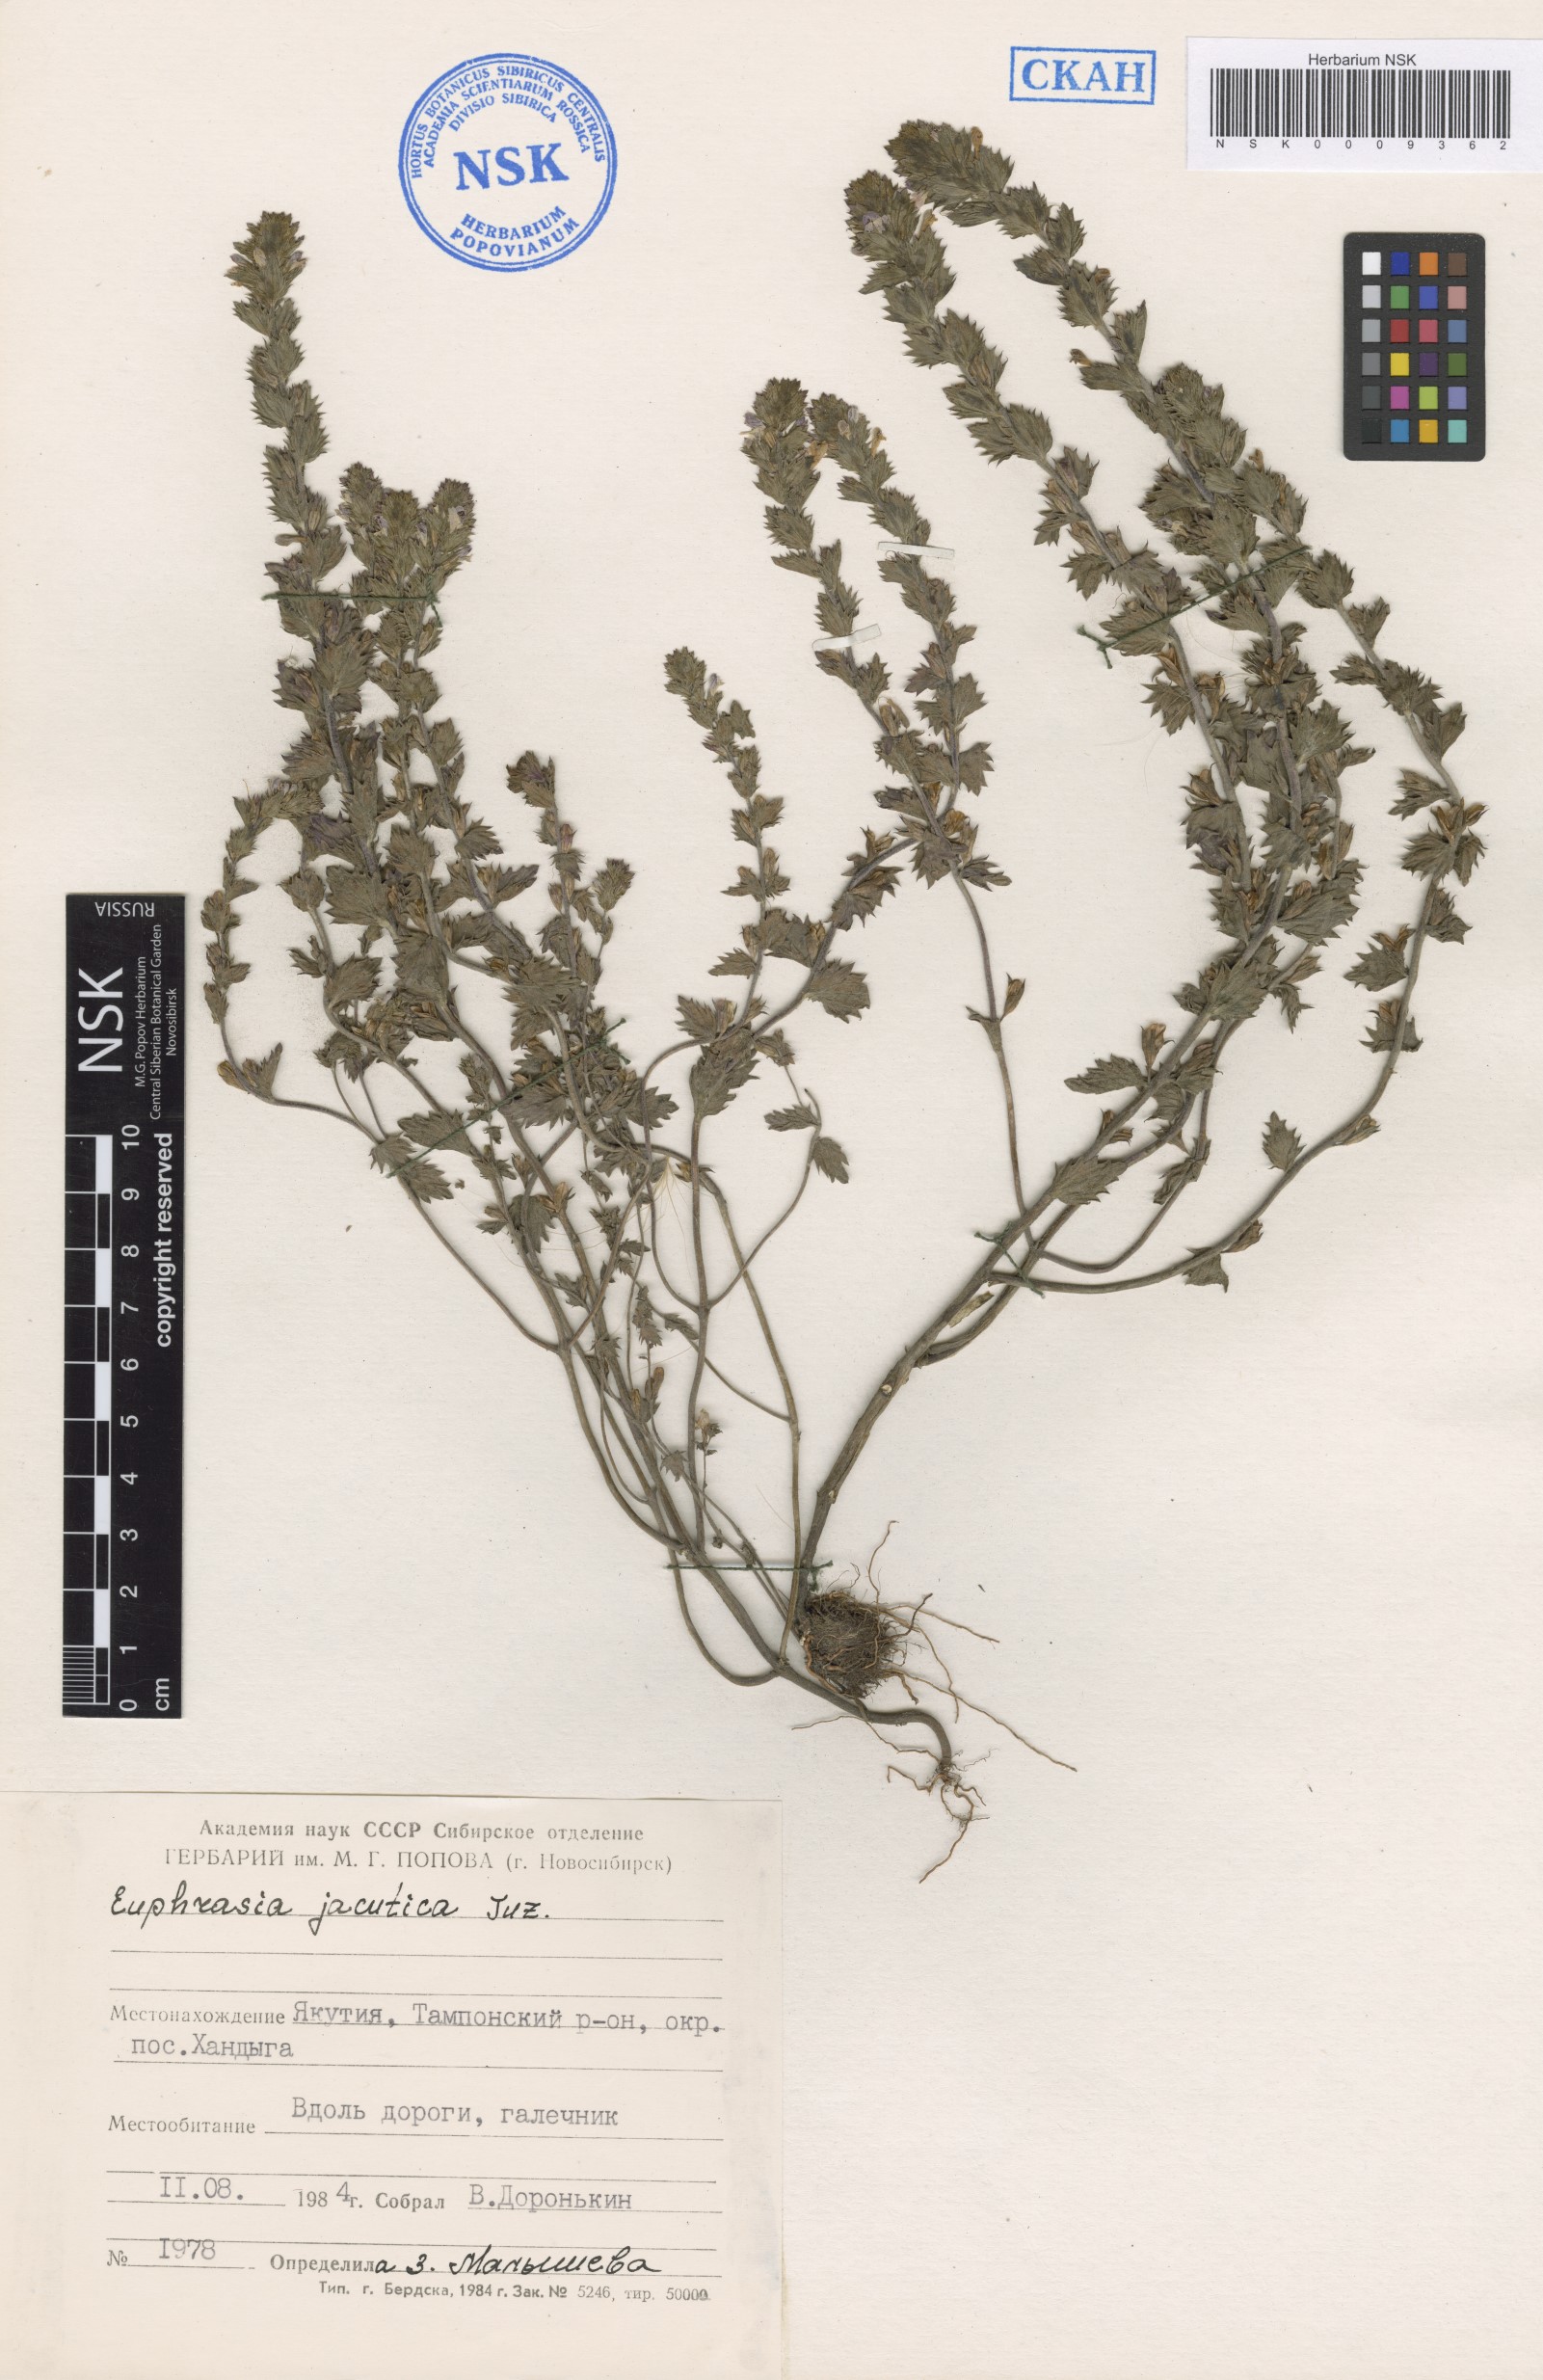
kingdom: Plantae
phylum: Tracheophyta
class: Magnoliopsida
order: Lamiales
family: Orobanchaceae
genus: Euphrasia
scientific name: Euphrasia jacutica
